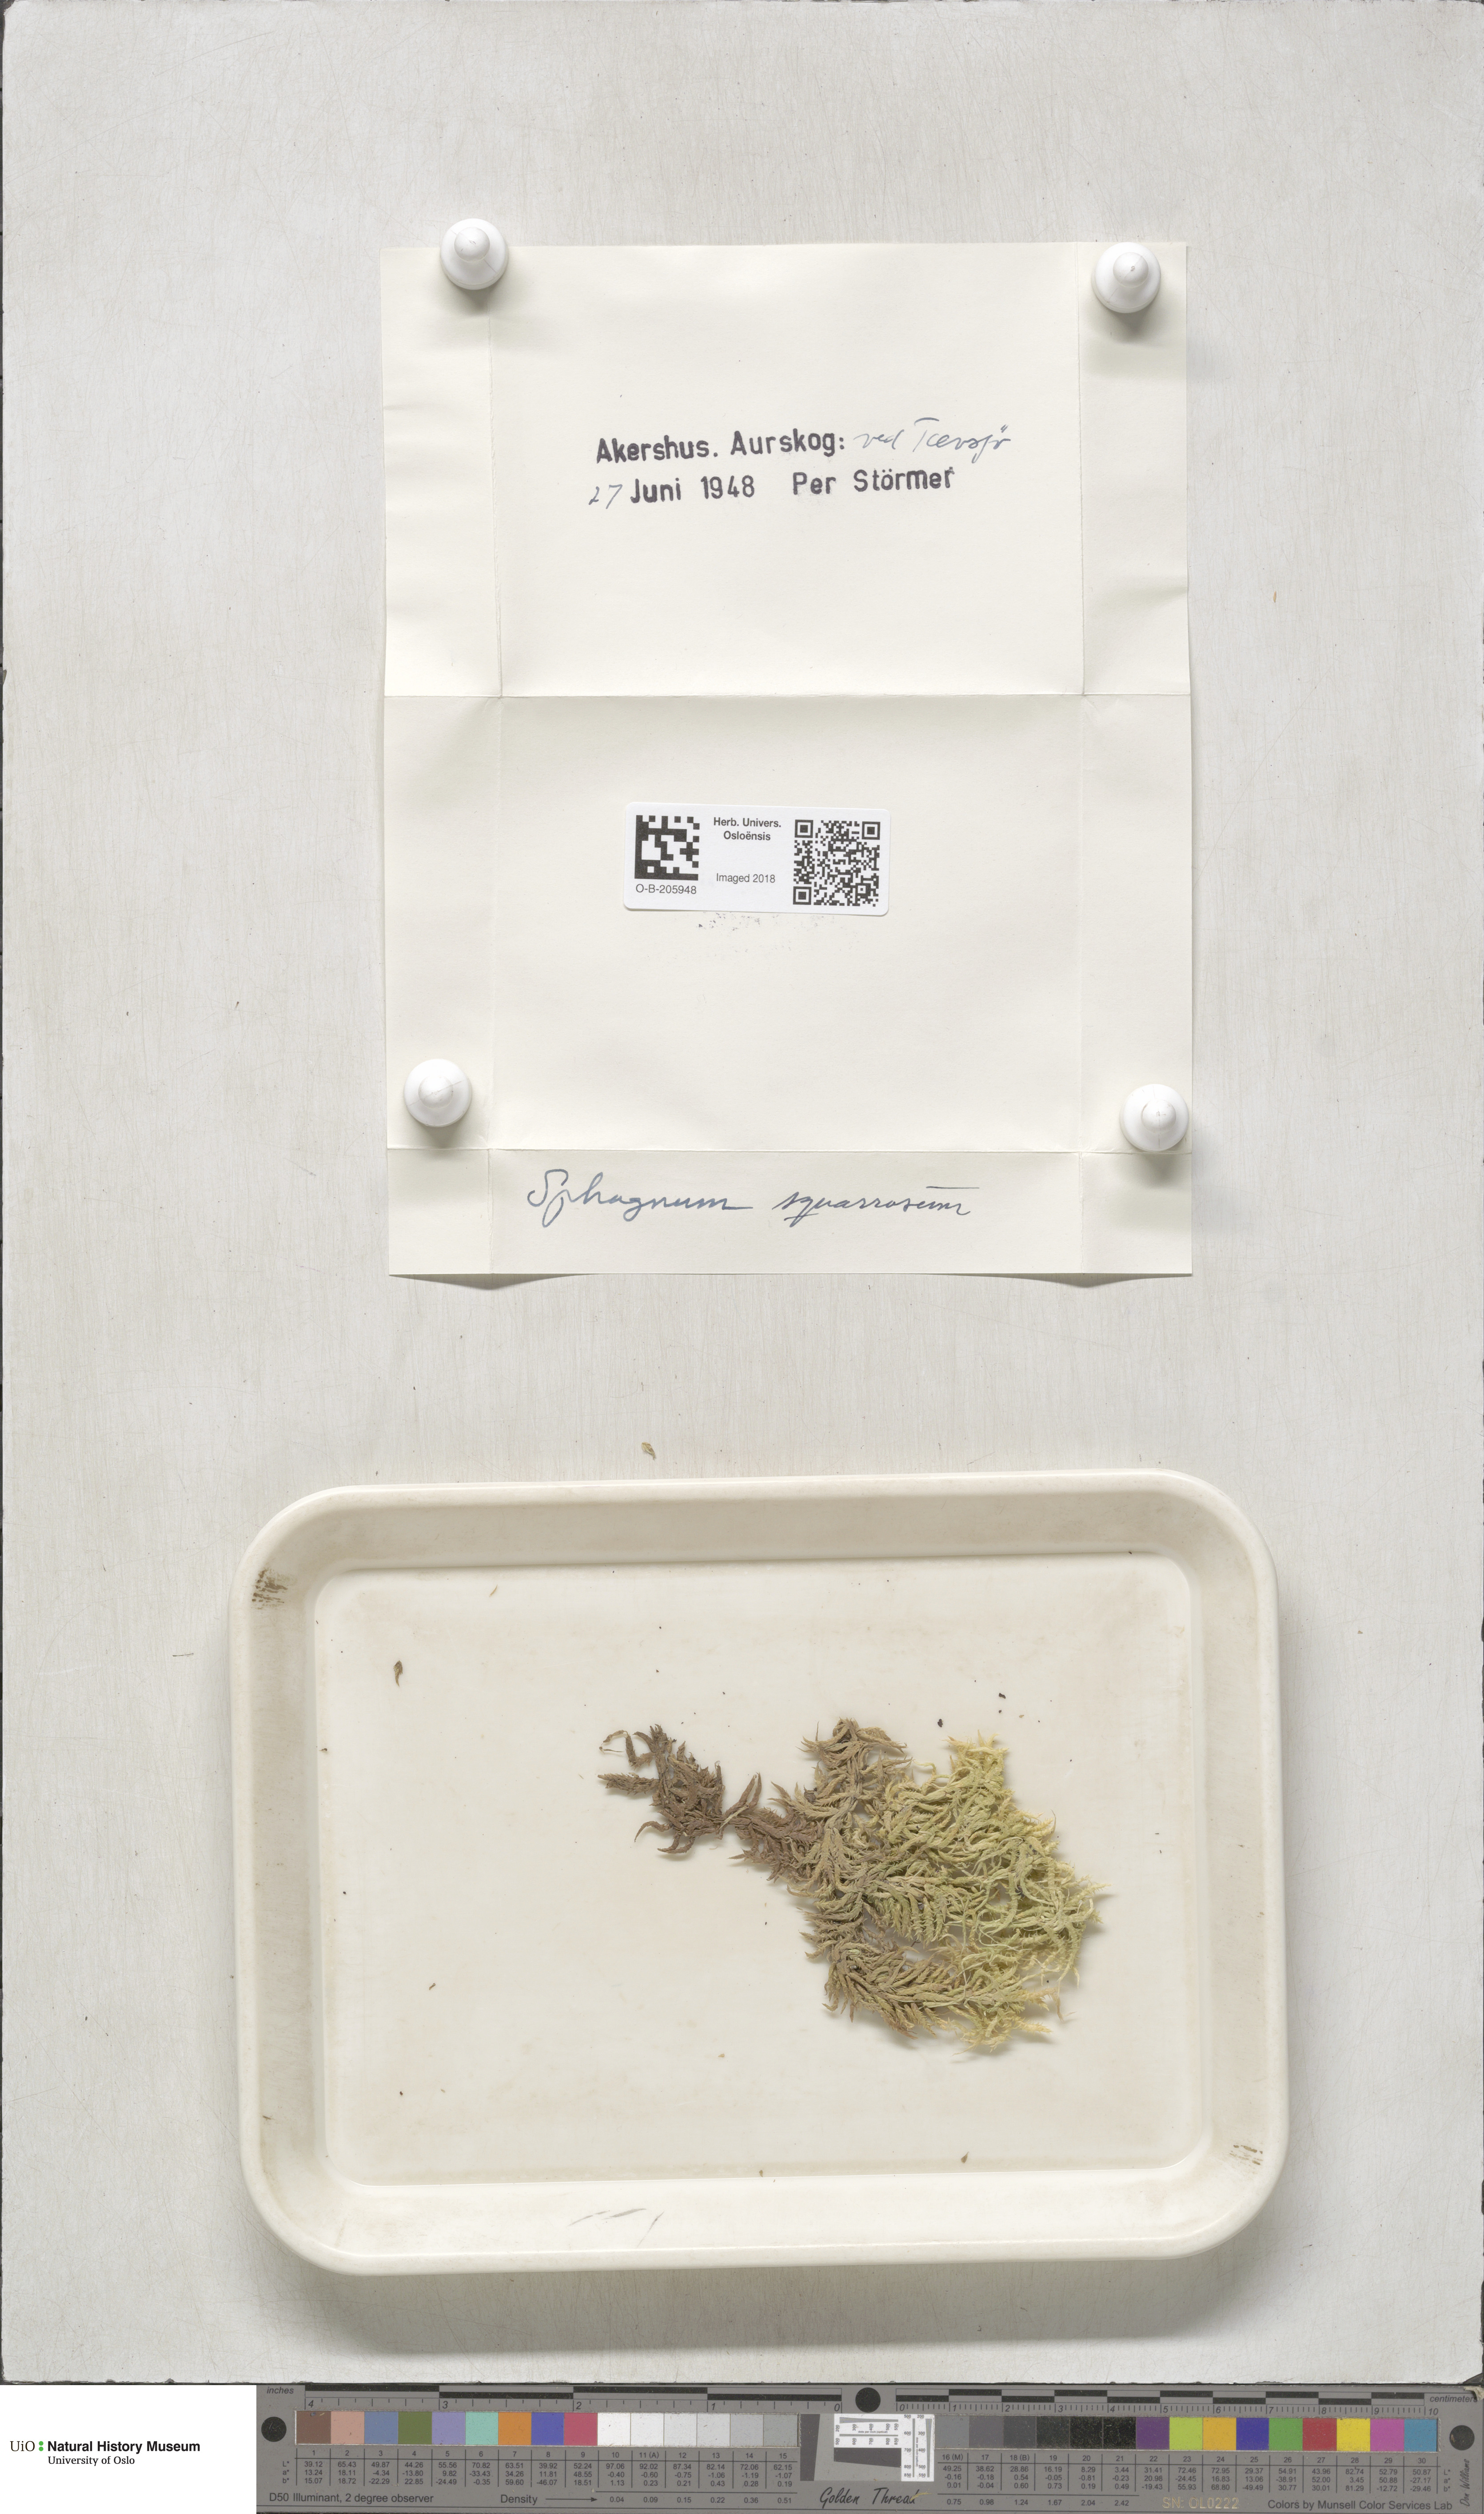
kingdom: Plantae
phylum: Bryophyta
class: Sphagnopsida
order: Sphagnales
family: Sphagnaceae
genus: Sphagnum
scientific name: Sphagnum squarrosum
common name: Shaggy peat moss
